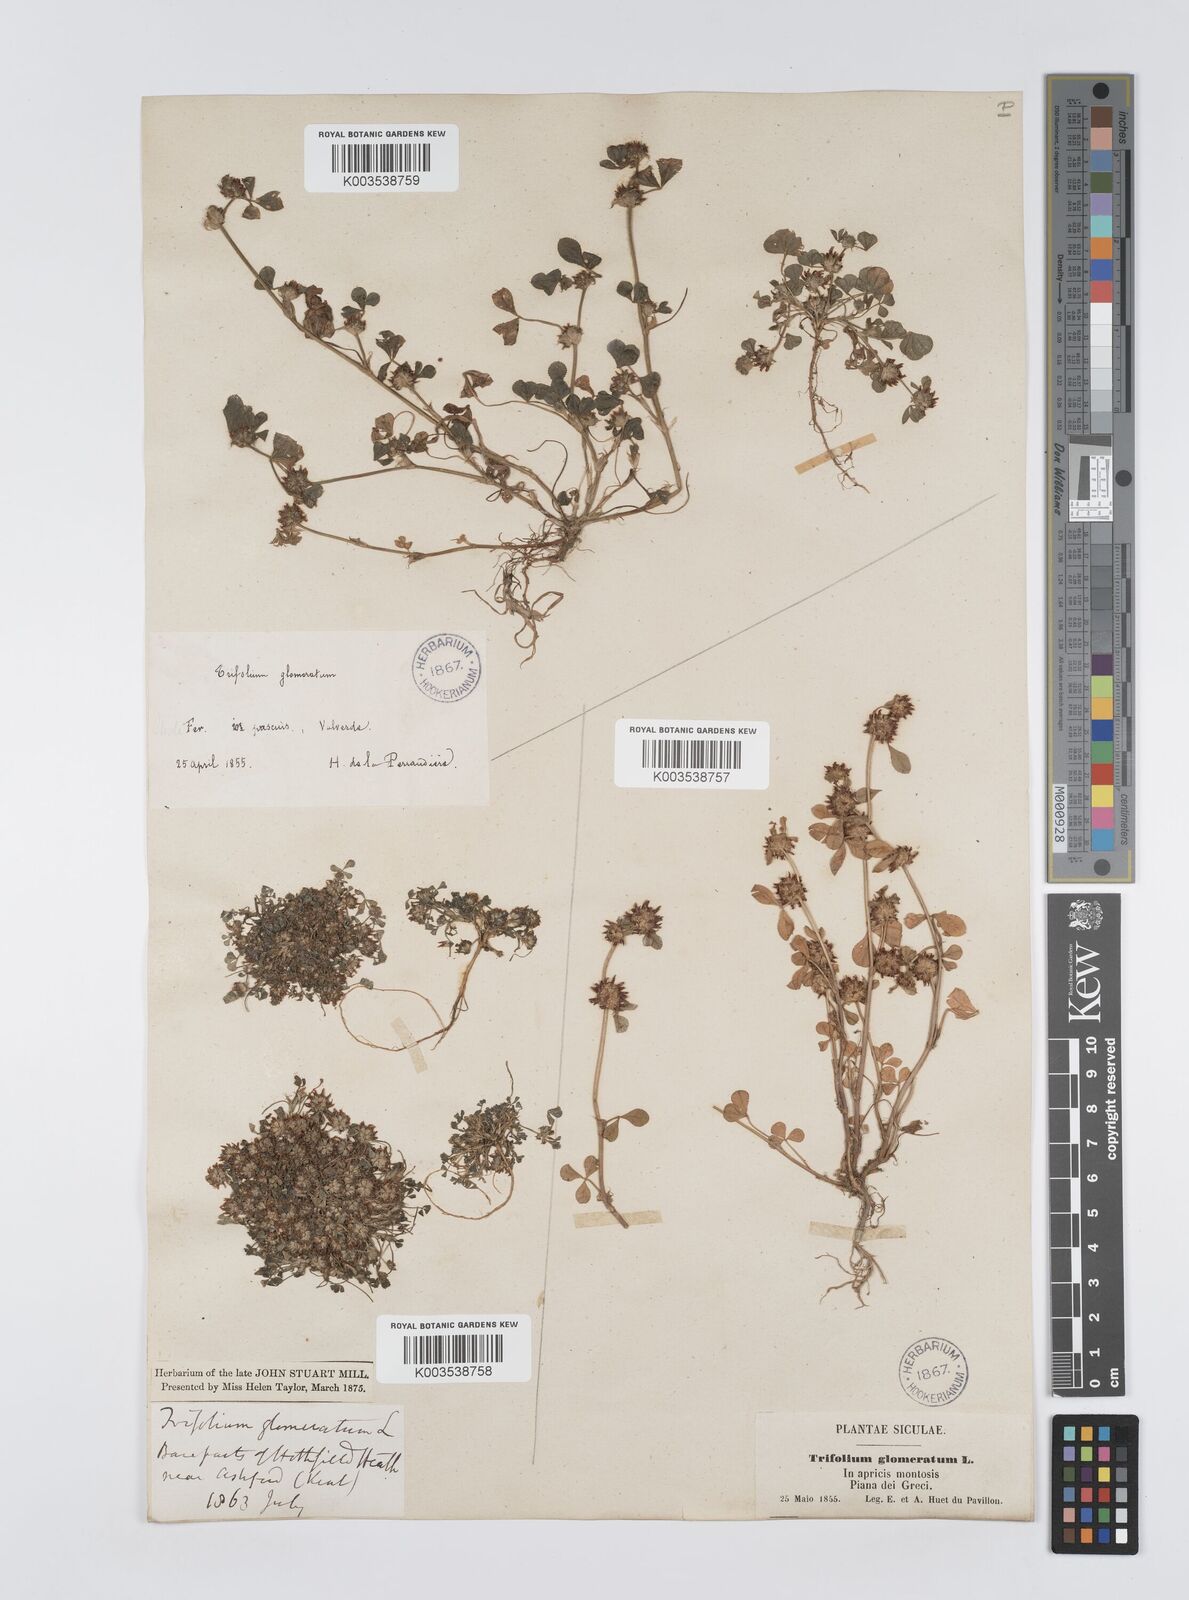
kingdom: Plantae
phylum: Tracheophyta
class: Magnoliopsida
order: Fabales
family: Fabaceae
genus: Trifolium
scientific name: Trifolium glomeratum
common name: Clustered clover
